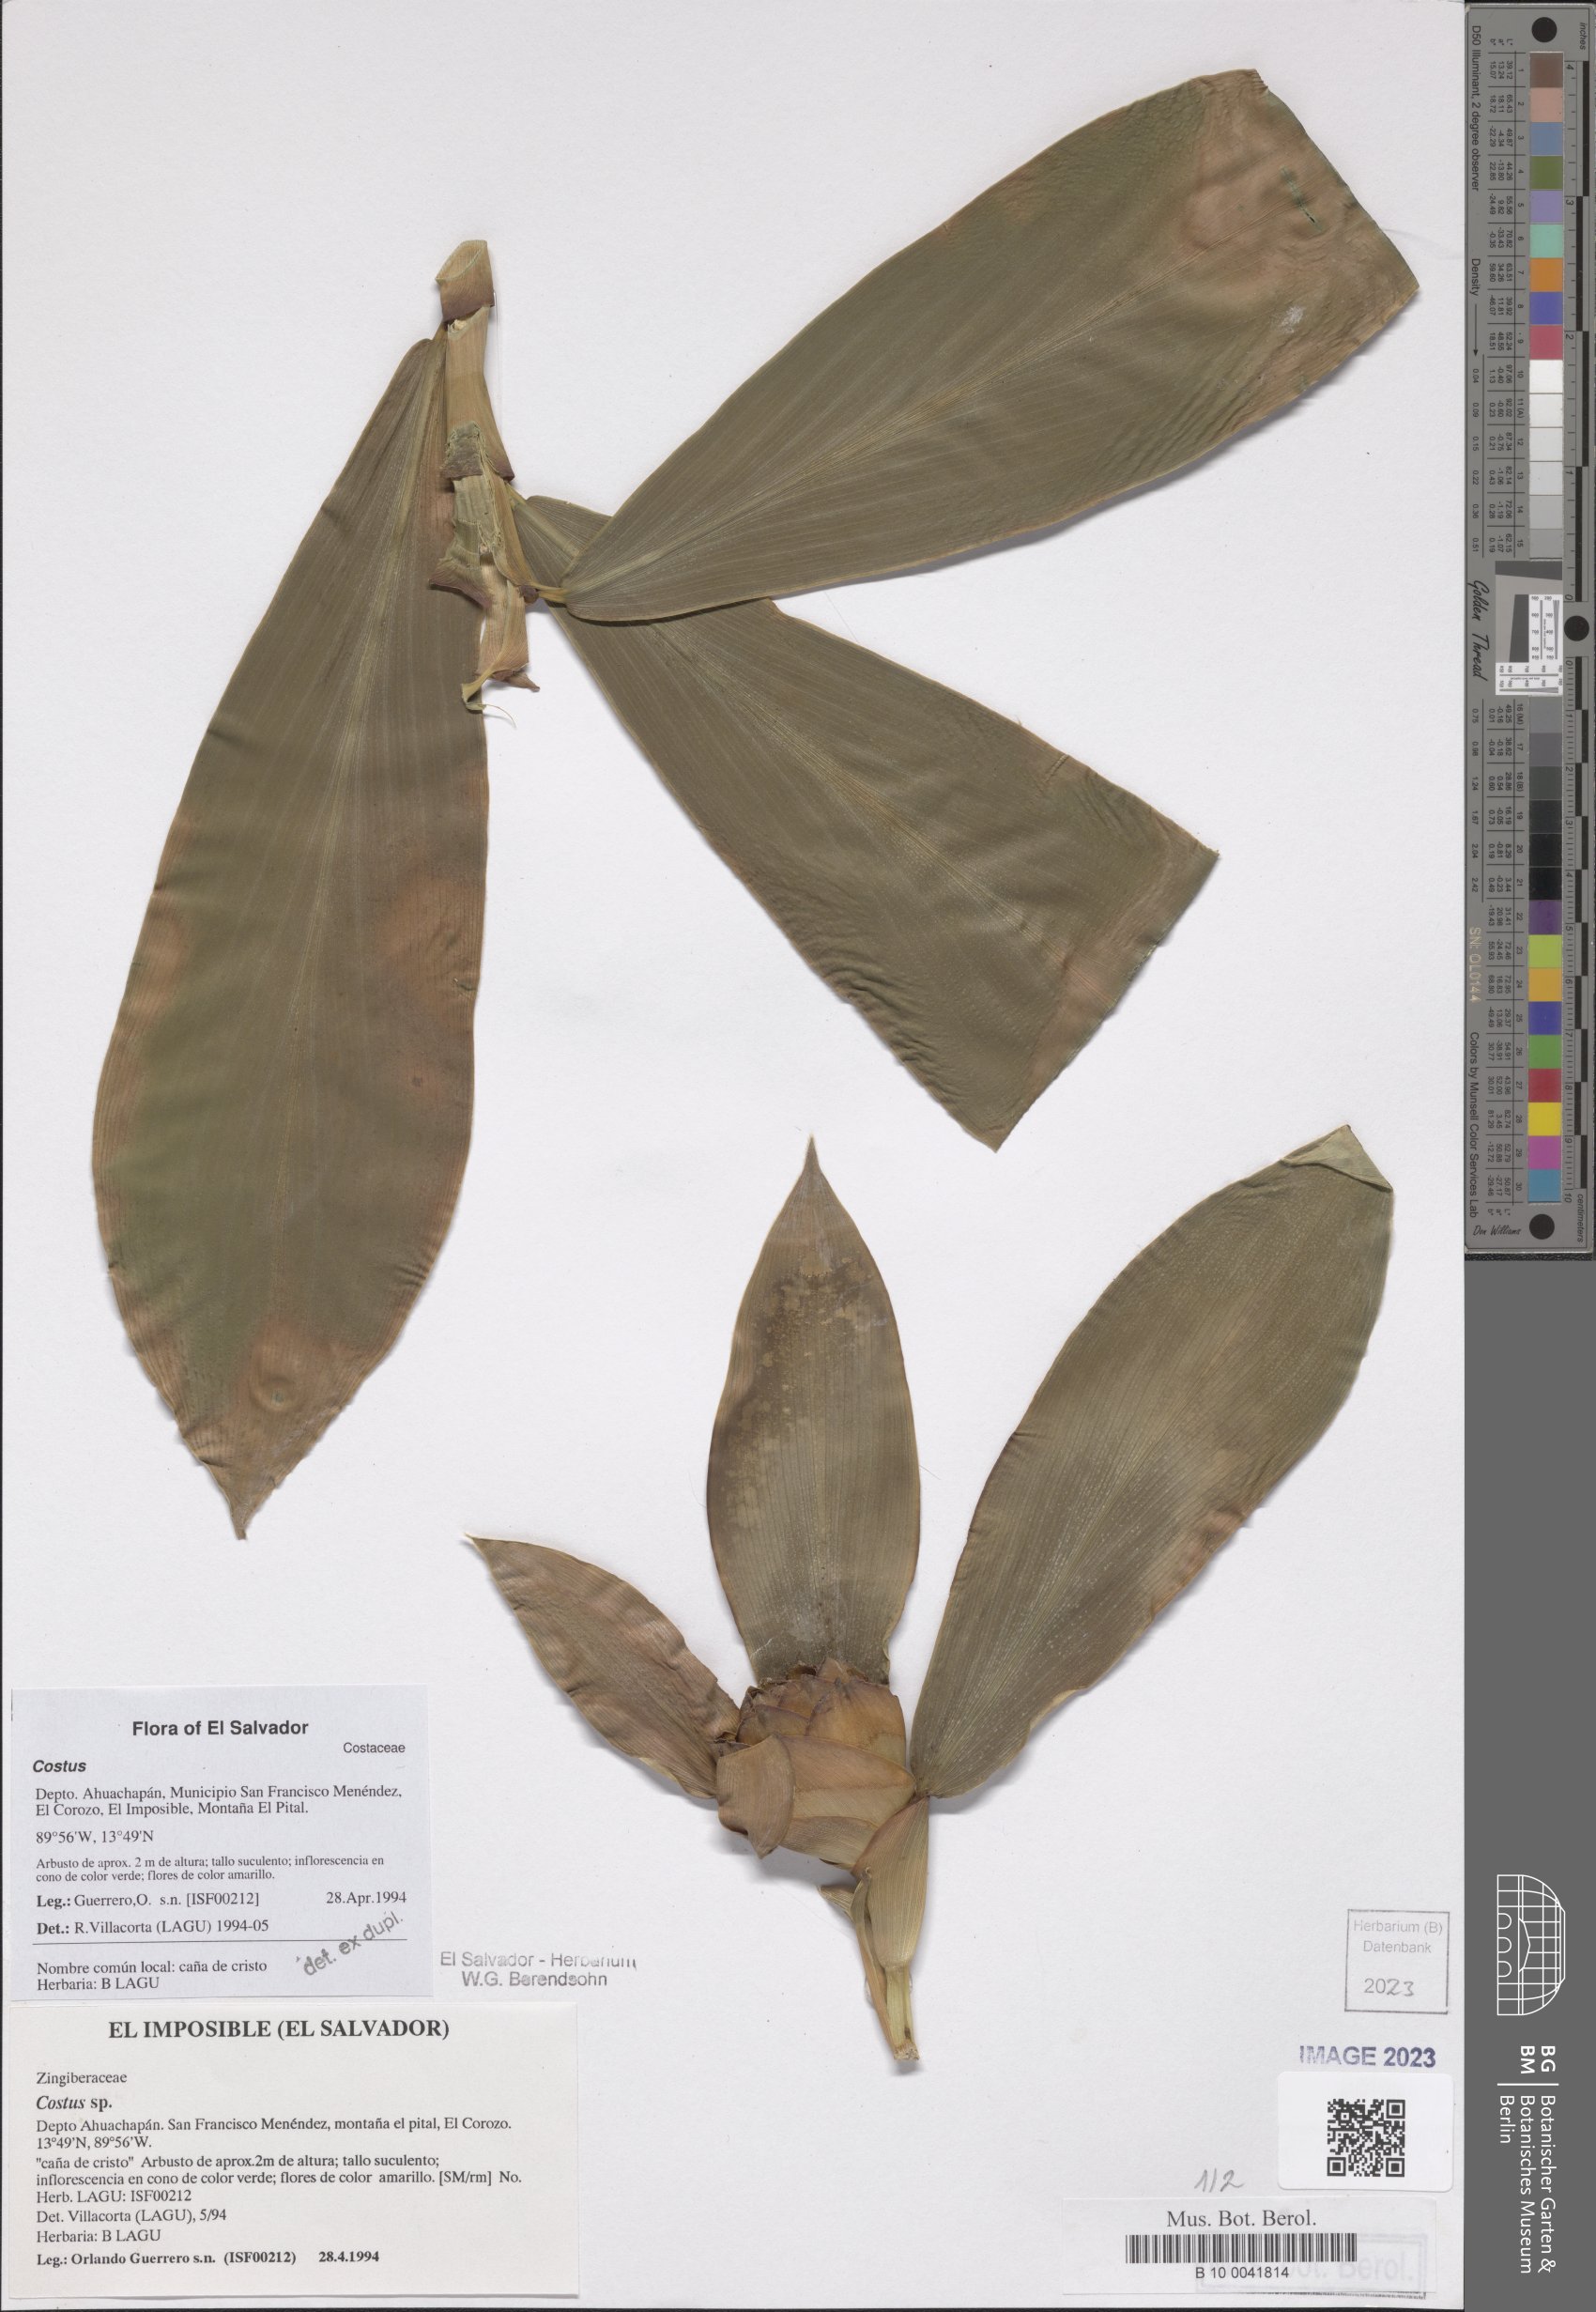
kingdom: Plantae
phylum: Tracheophyta
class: Liliopsida
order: Zingiberales
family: Costaceae
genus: Costus
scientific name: Costus
